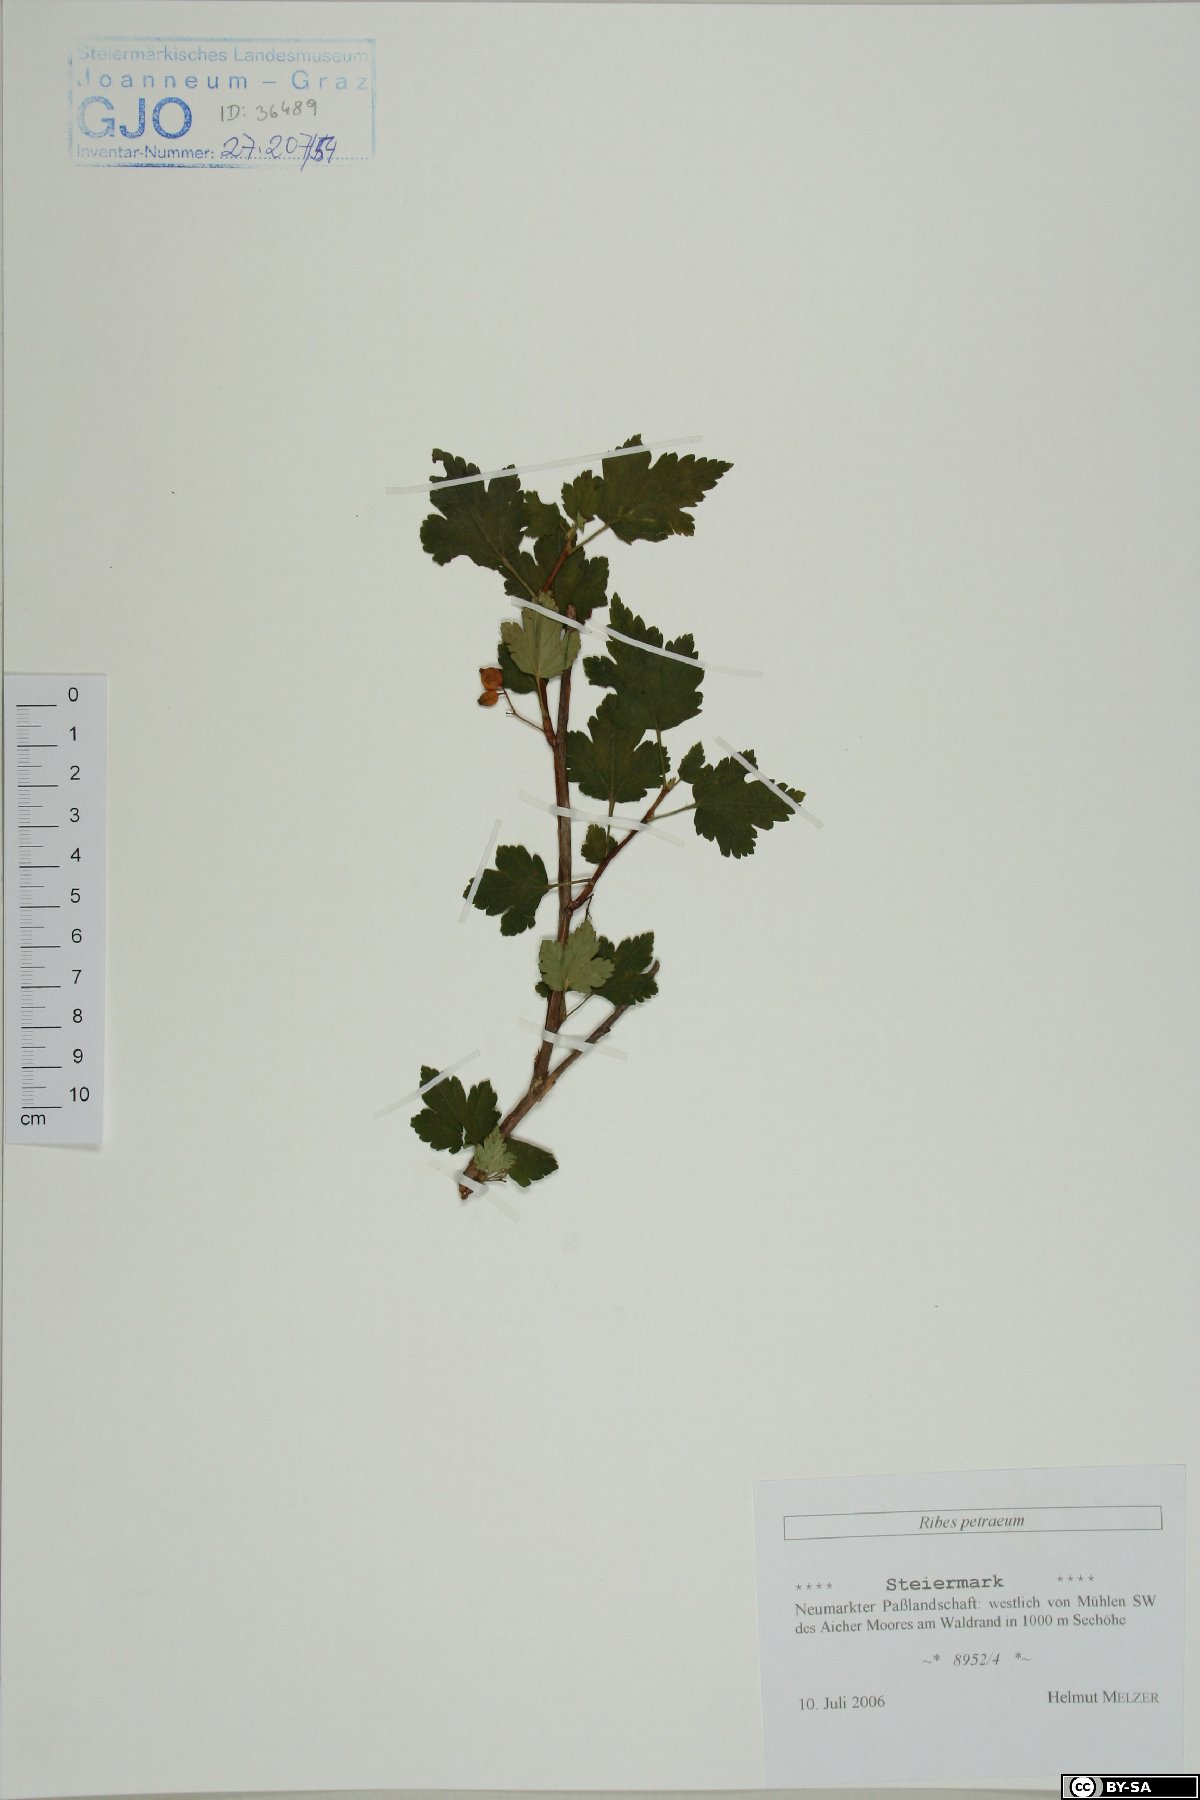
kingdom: Plantae
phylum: Tracheophyta
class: Magnoliopsida
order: Saxifragales
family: Grossulariaceae
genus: Ribes
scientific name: Ribes petraeum
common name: Rock currant
